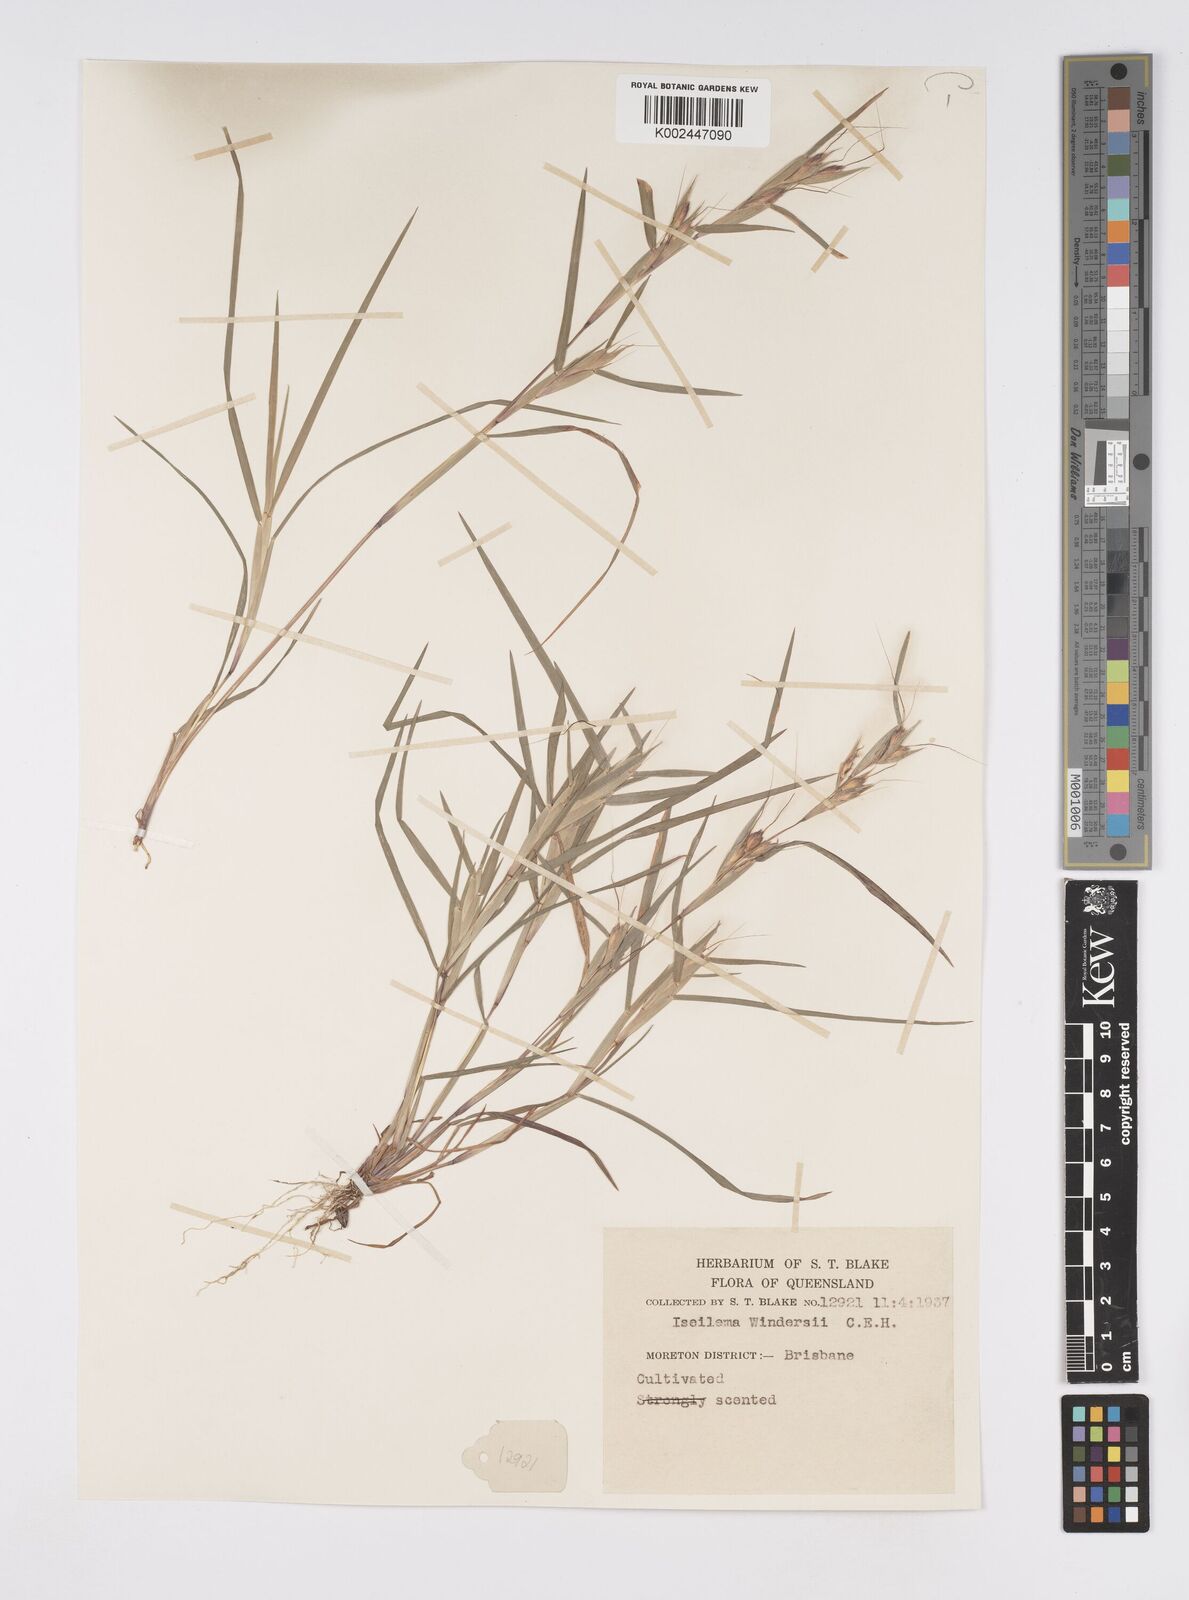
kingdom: Plantae
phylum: Tracheophyta
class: Liliopsida
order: Poales
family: Poaceae
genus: Iseilema
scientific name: Iseilema windersii
